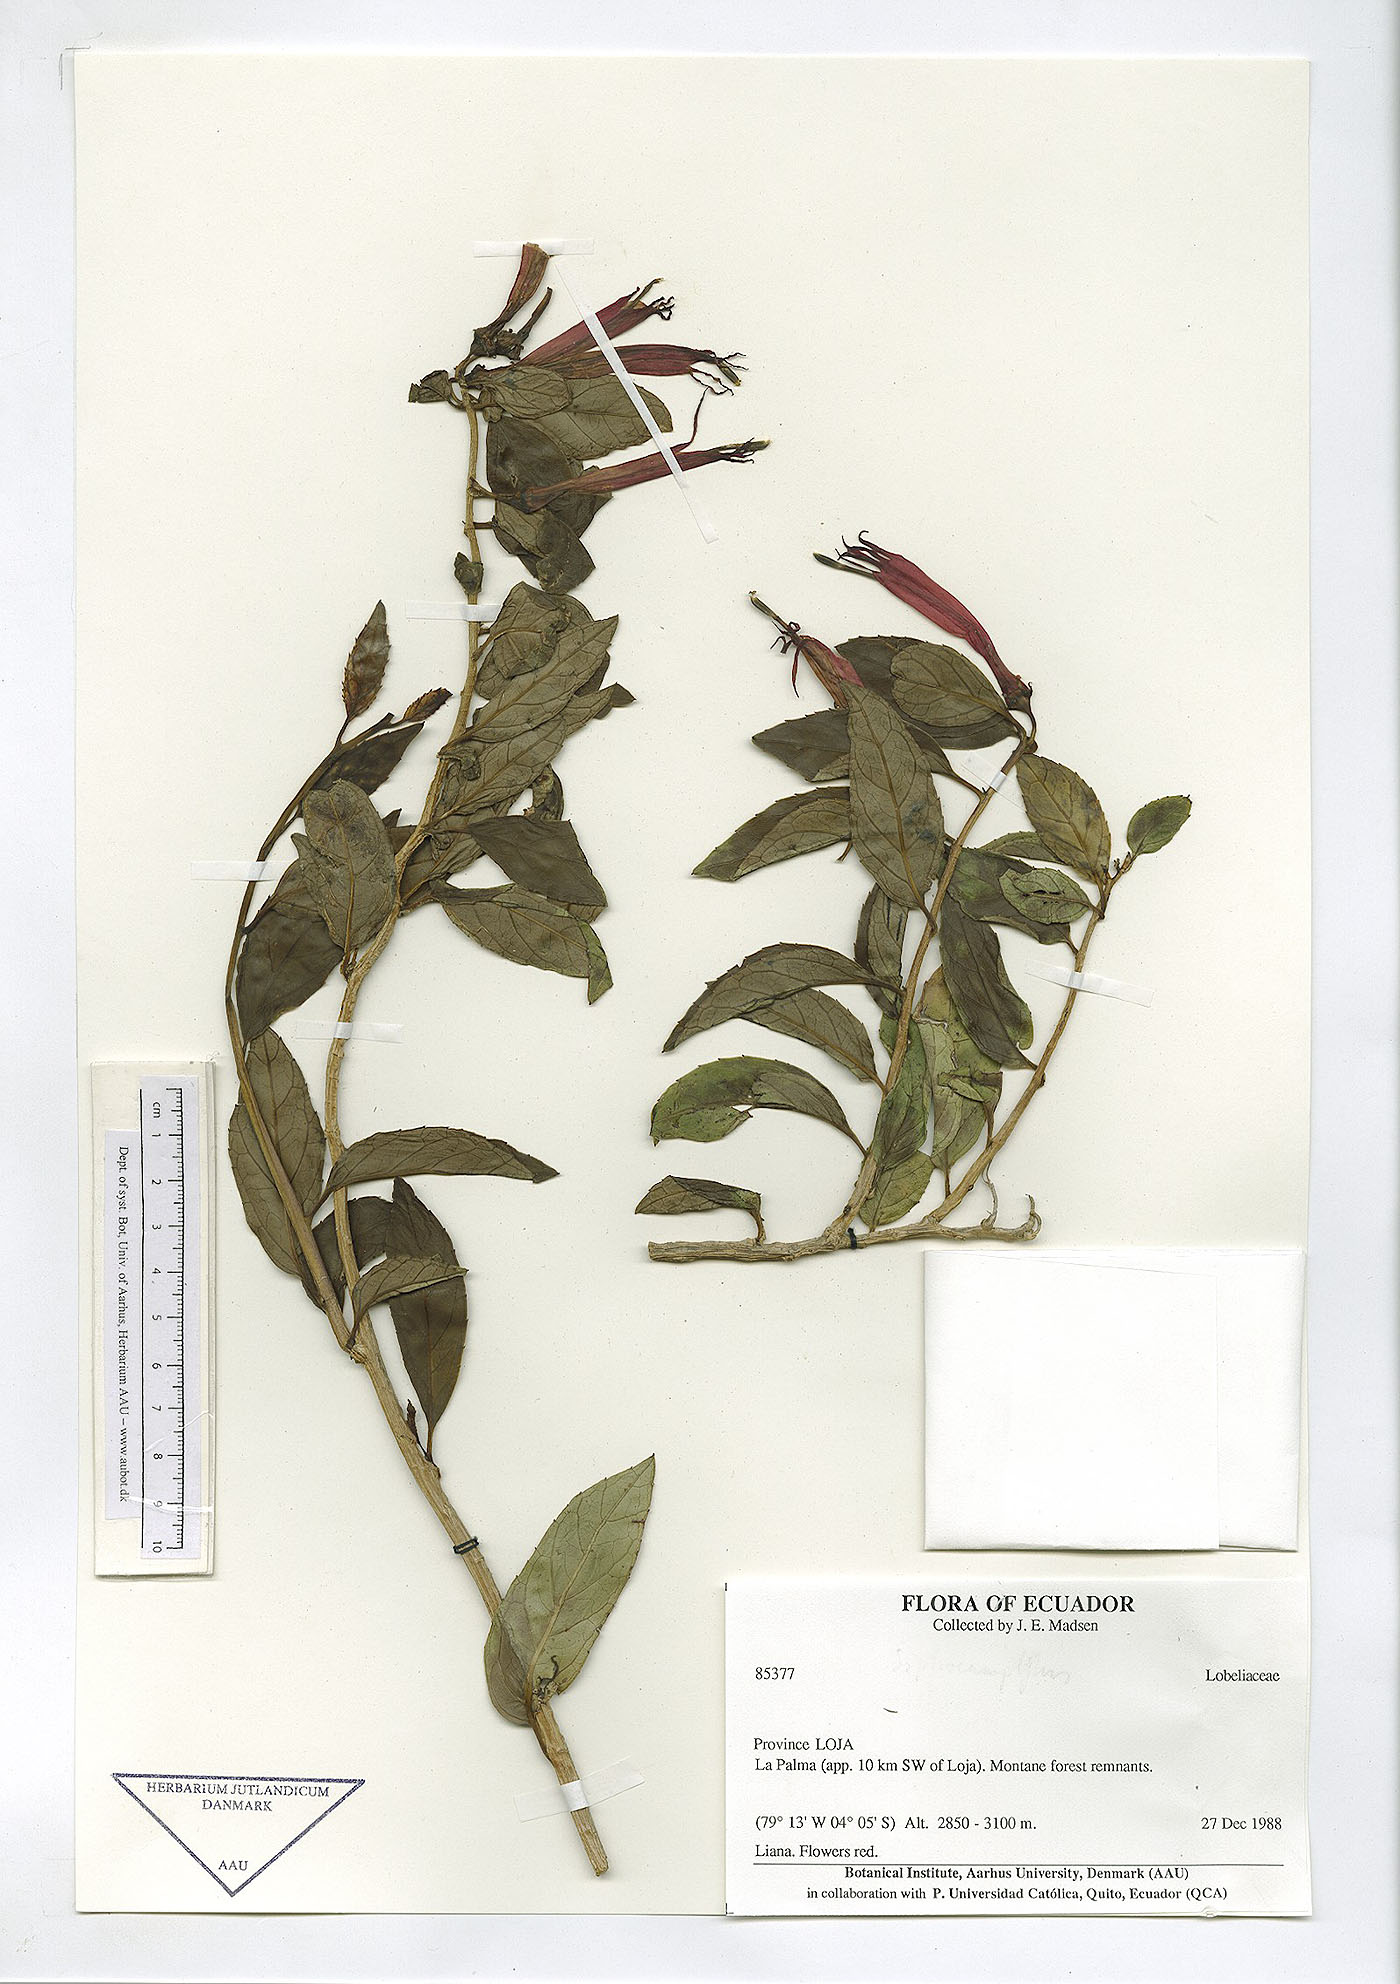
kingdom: Plantae
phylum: Tracheophyta
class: Magnoliopsida
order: Asterales
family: Campanulaceae
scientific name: Campanulaceae
